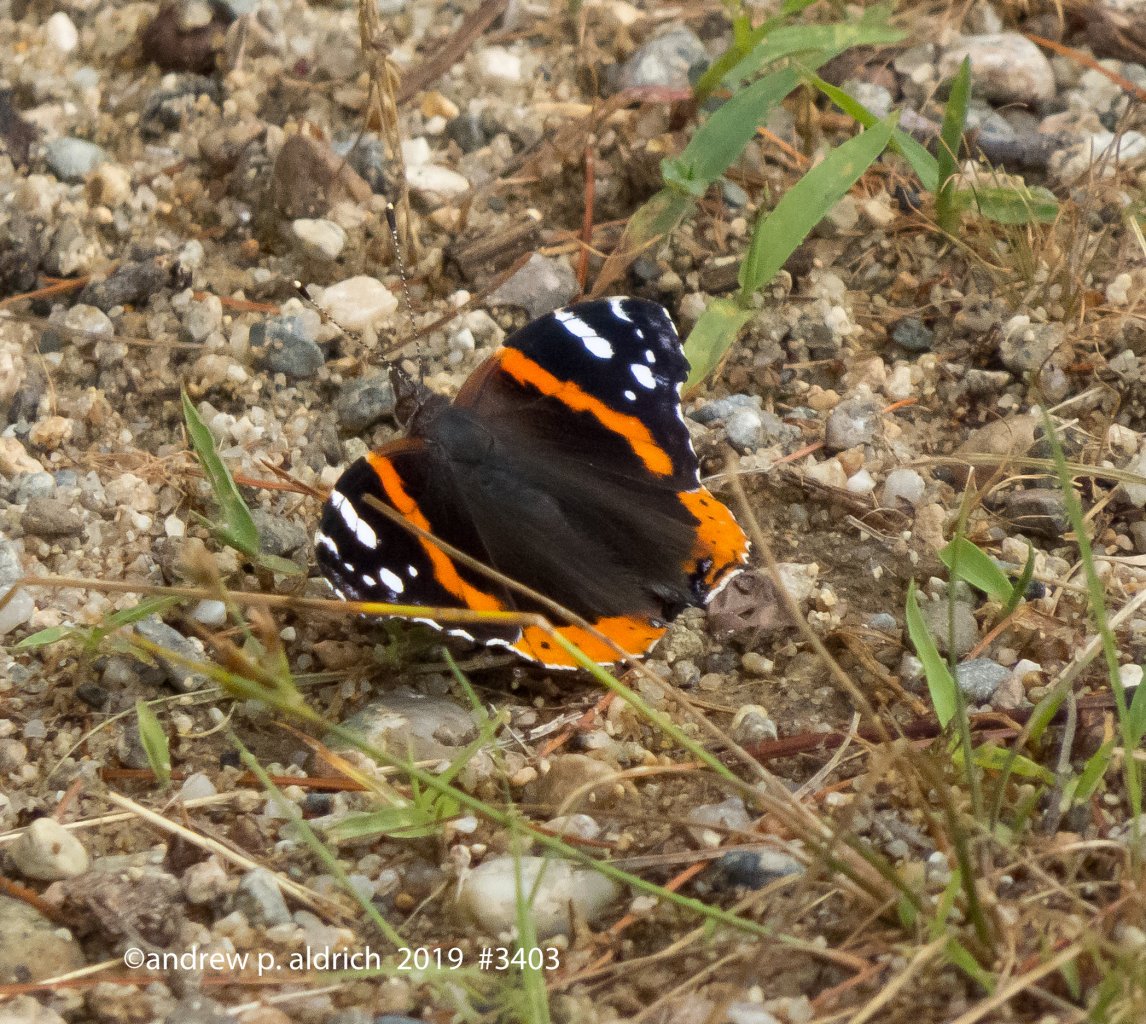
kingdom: Animalia
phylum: Arthropoda
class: Insecta
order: Lepidoptera
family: Nymphalidae
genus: Vanessa
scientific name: Vanessa atalanta
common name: Red Admiral
